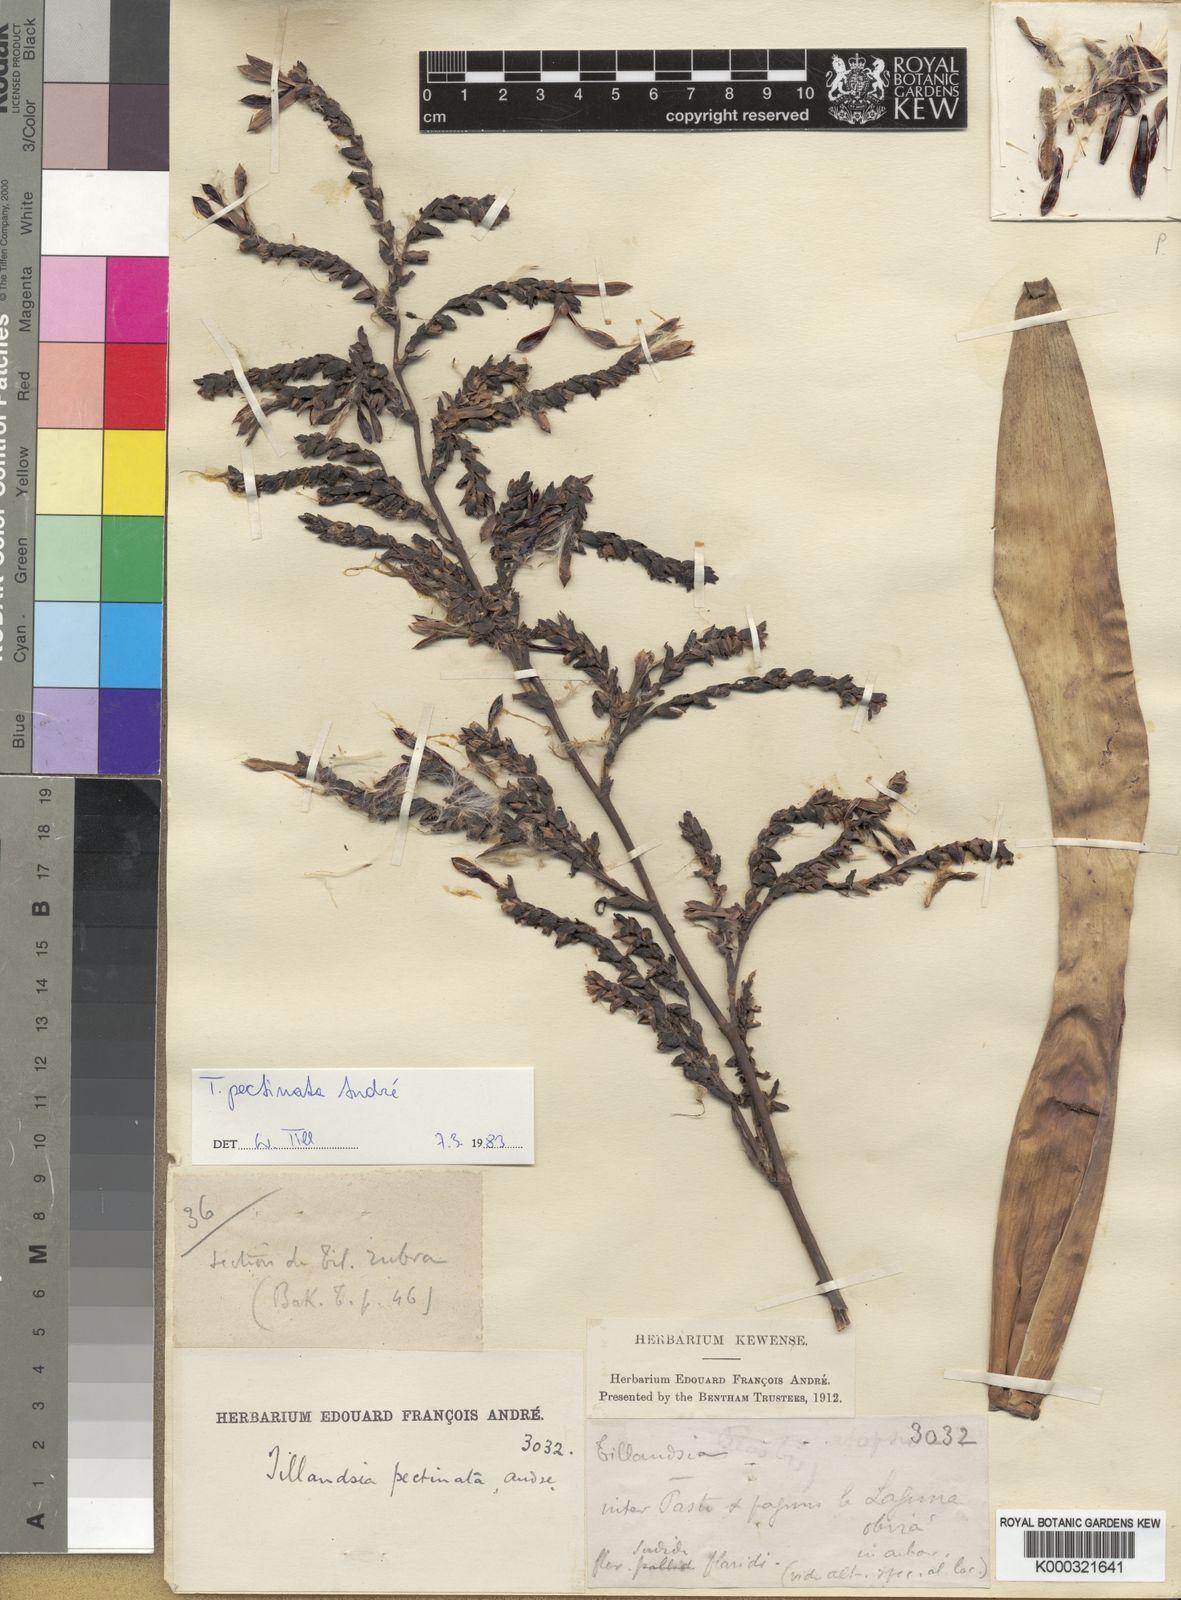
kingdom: Plantae
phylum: Tracheophyta
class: Liliopsida
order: Poales
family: Bromeliaceae
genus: Tillandsia
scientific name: Tillandsia
